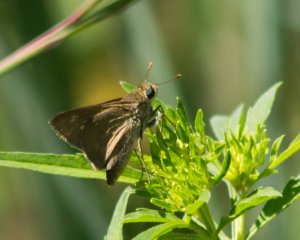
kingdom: Animalia
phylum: Arthropoda
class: Insecta
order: Lepidoptera
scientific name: Lepidoptera
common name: Butterflies
